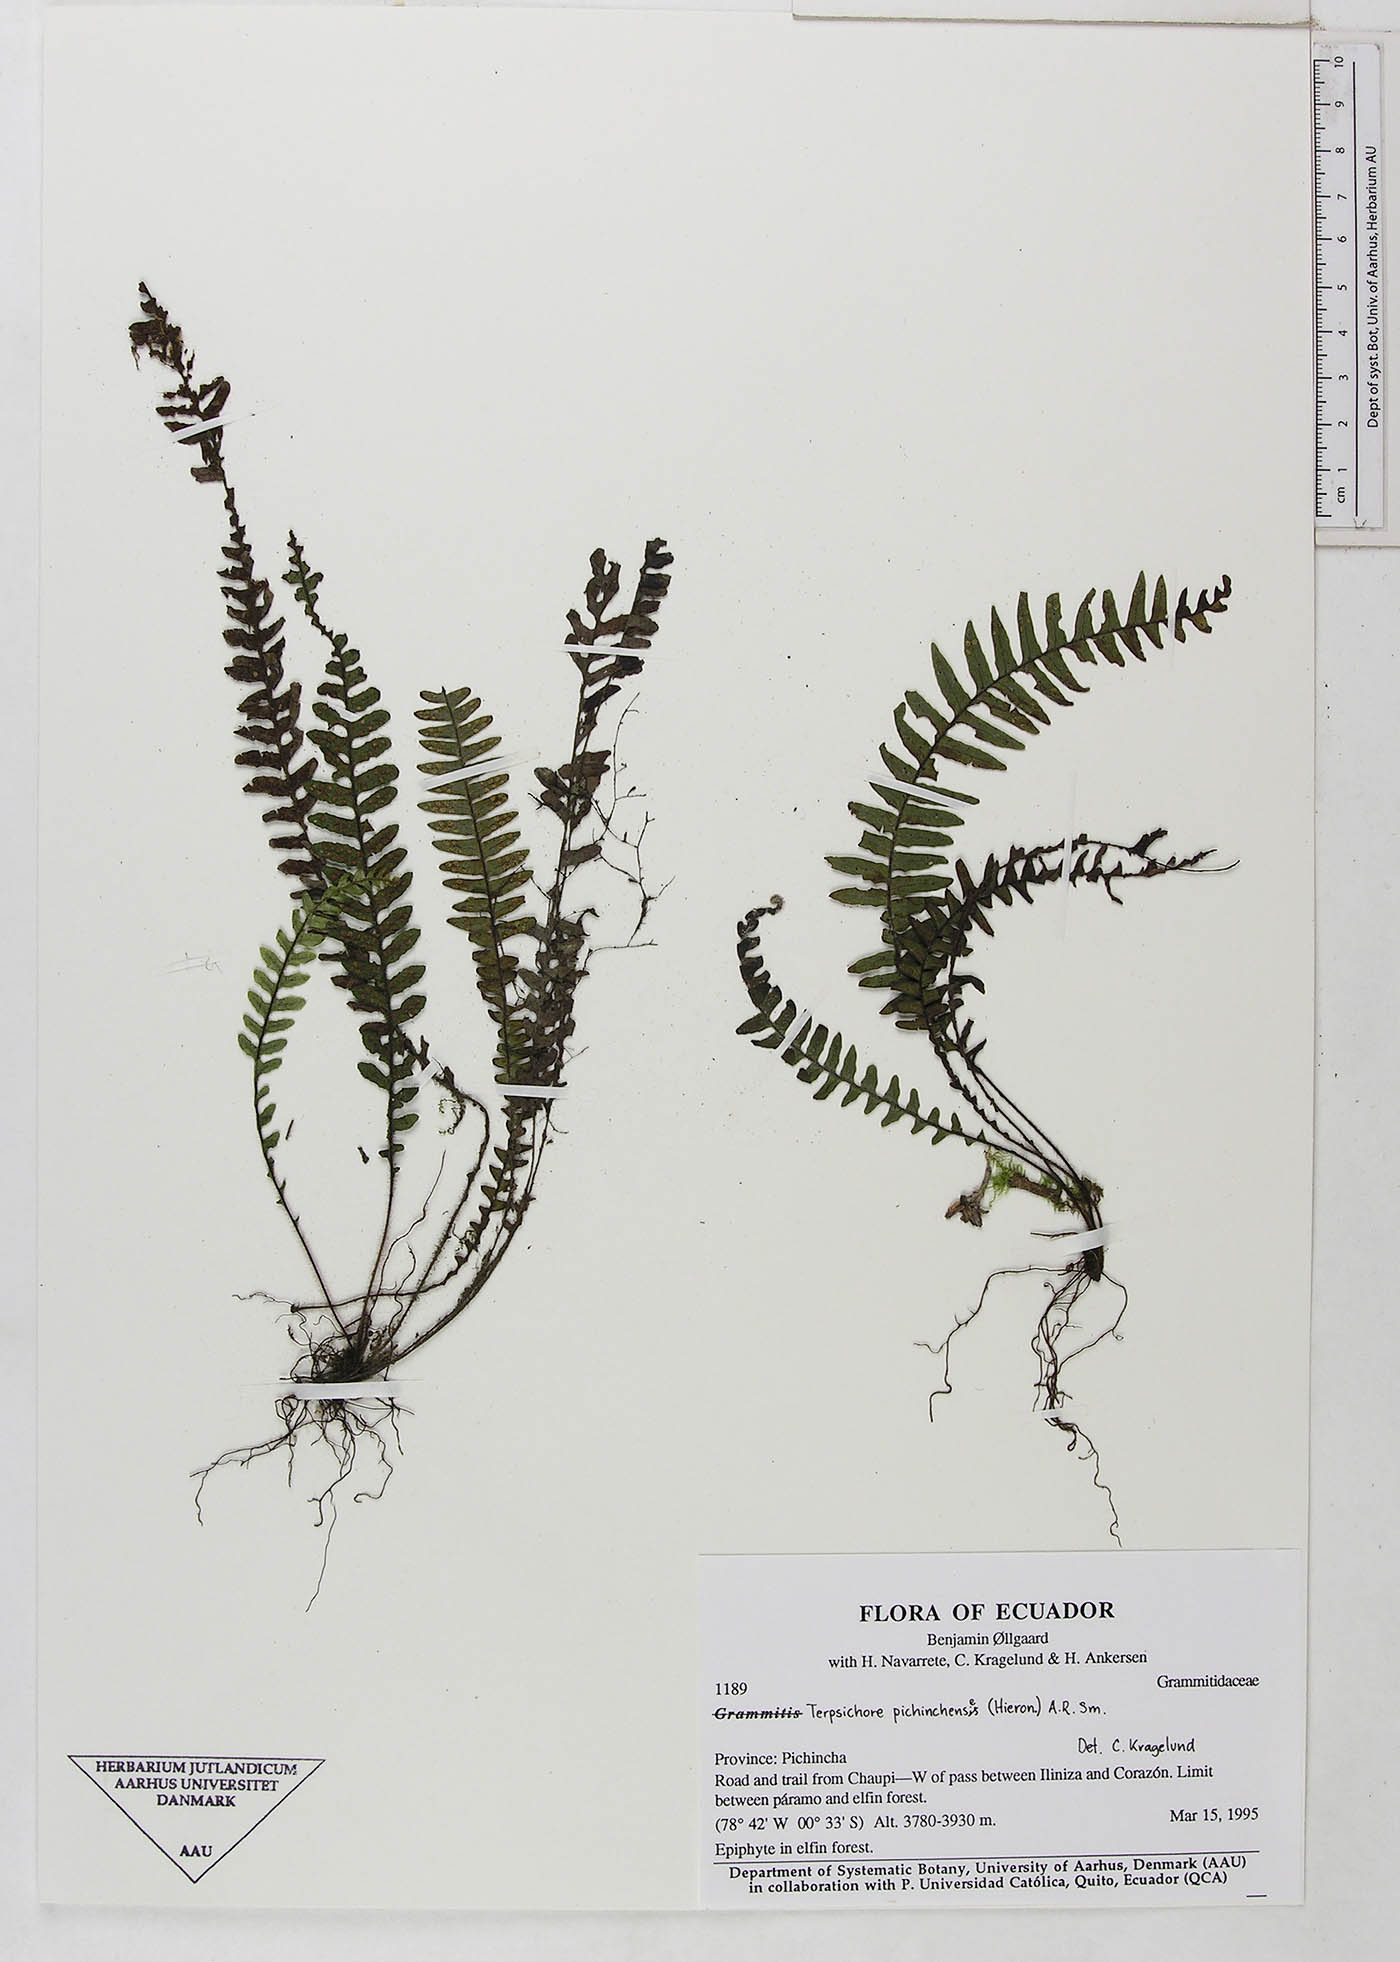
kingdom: Plantae
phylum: Tracheophyta
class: Polypodiopsida
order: Polypodiales
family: Polypodiaceae
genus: Grammitis
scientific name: Grammitis
